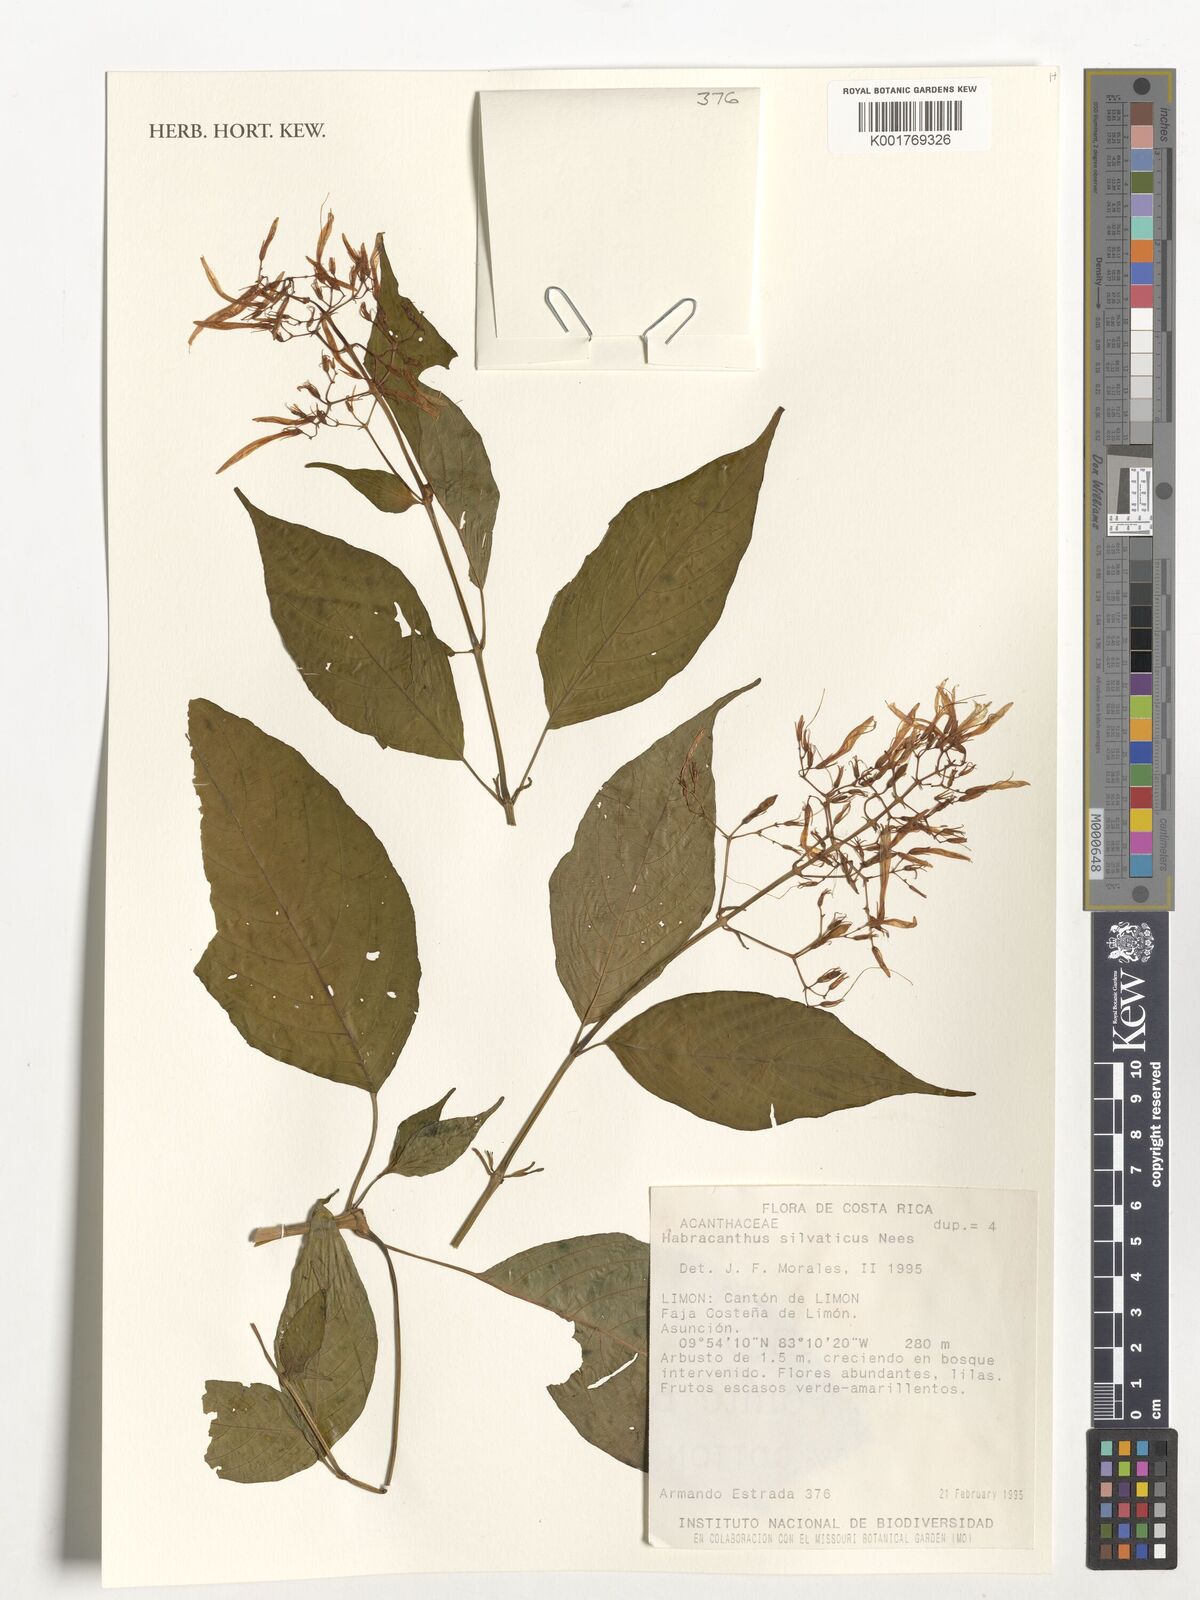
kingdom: Plantae
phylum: Tracheophyta
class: Magnoliopsida
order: Lamiales
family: Acanthaceae
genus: Stenostephanus
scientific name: Stenostephanus silvaticus
